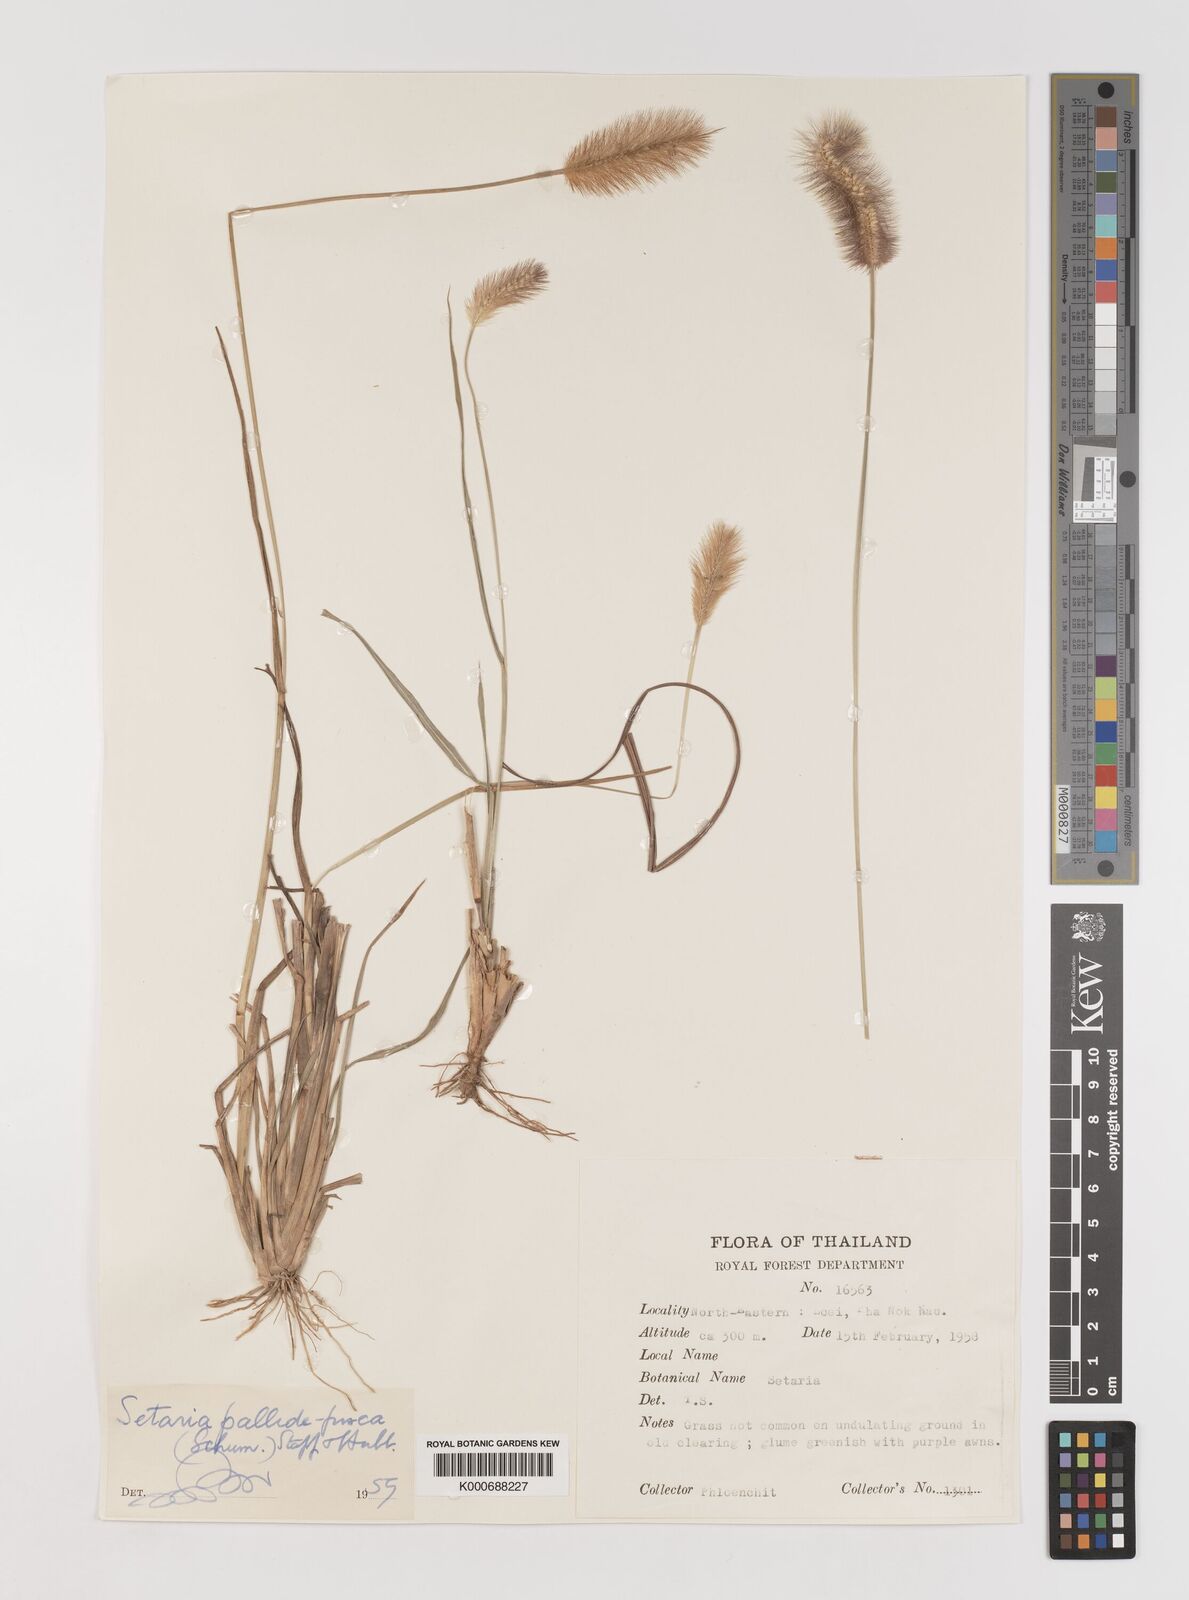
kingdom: Plantae
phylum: Tracheophyta
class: Liliopsida
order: Poales
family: Poaceae
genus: Setaria
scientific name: Setaria pumila
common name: Yellow bristle-grass
